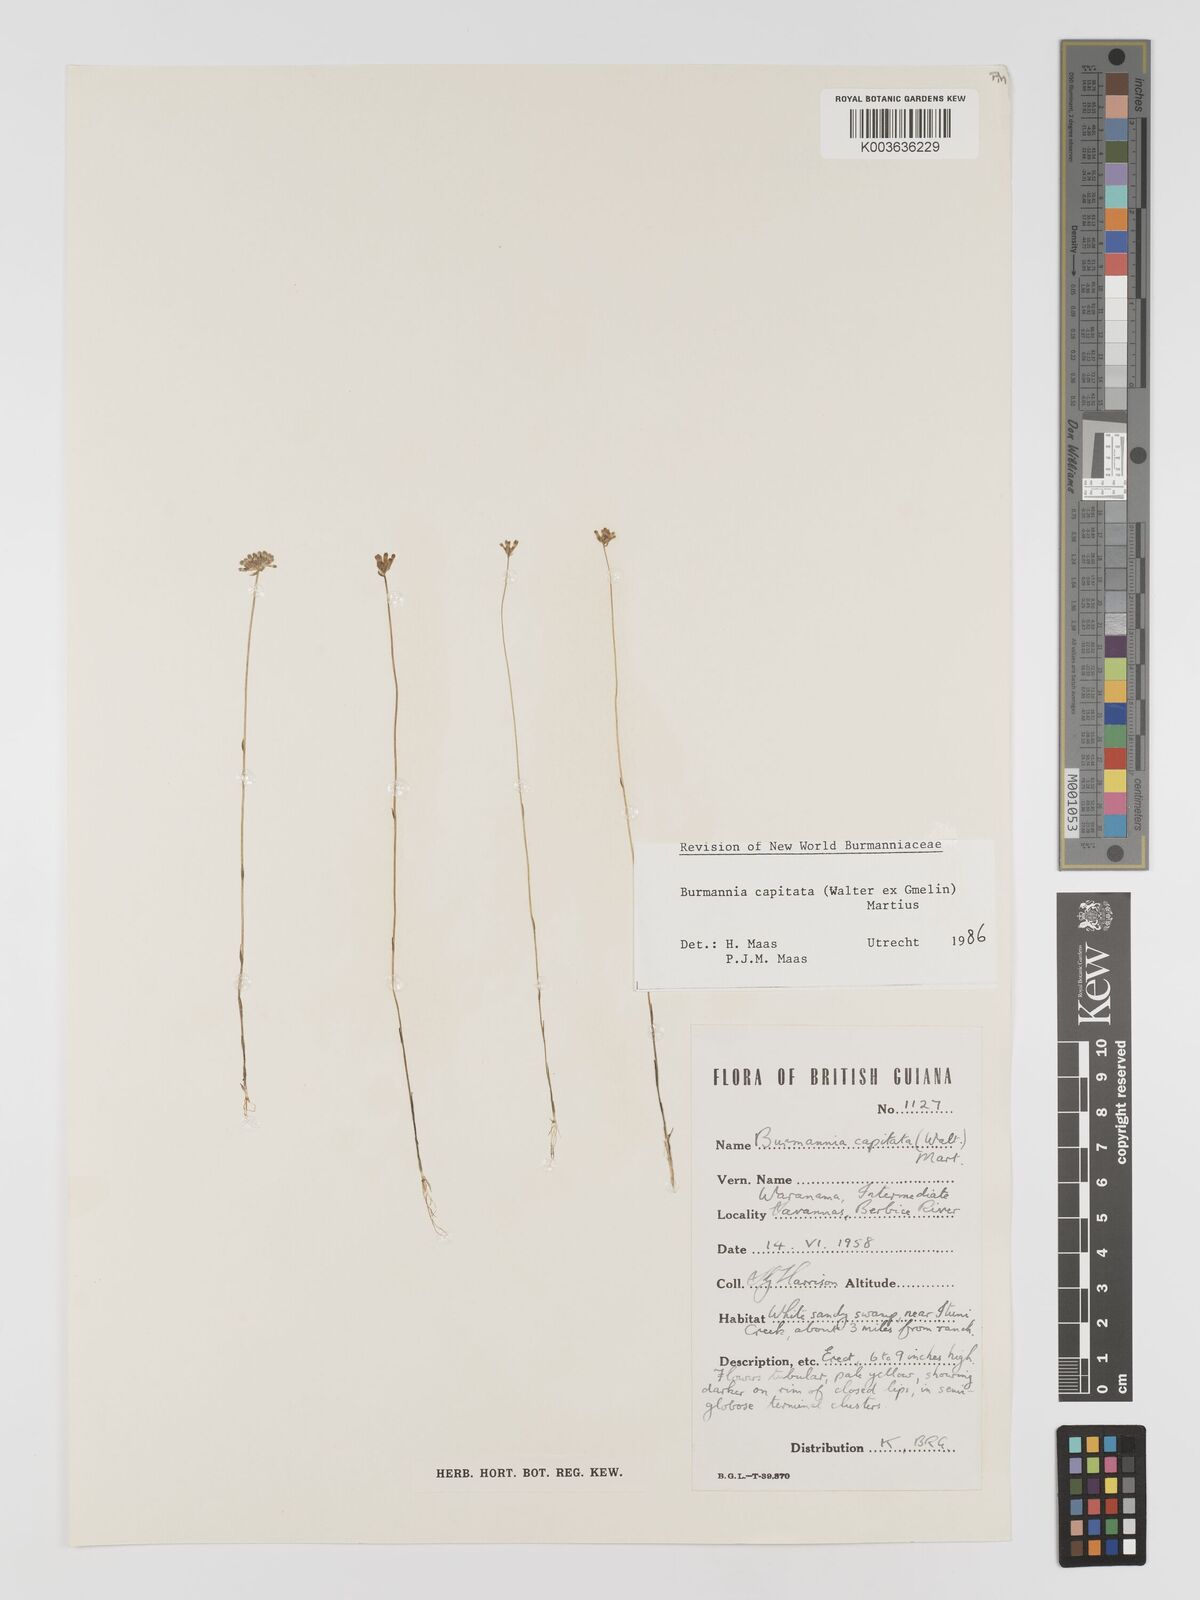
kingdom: Plantae
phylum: Tracheophyta
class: Liliopsida
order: Dioscoreales
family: Burmanniaceae
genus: Burmannia
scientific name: Burmannia capitata
